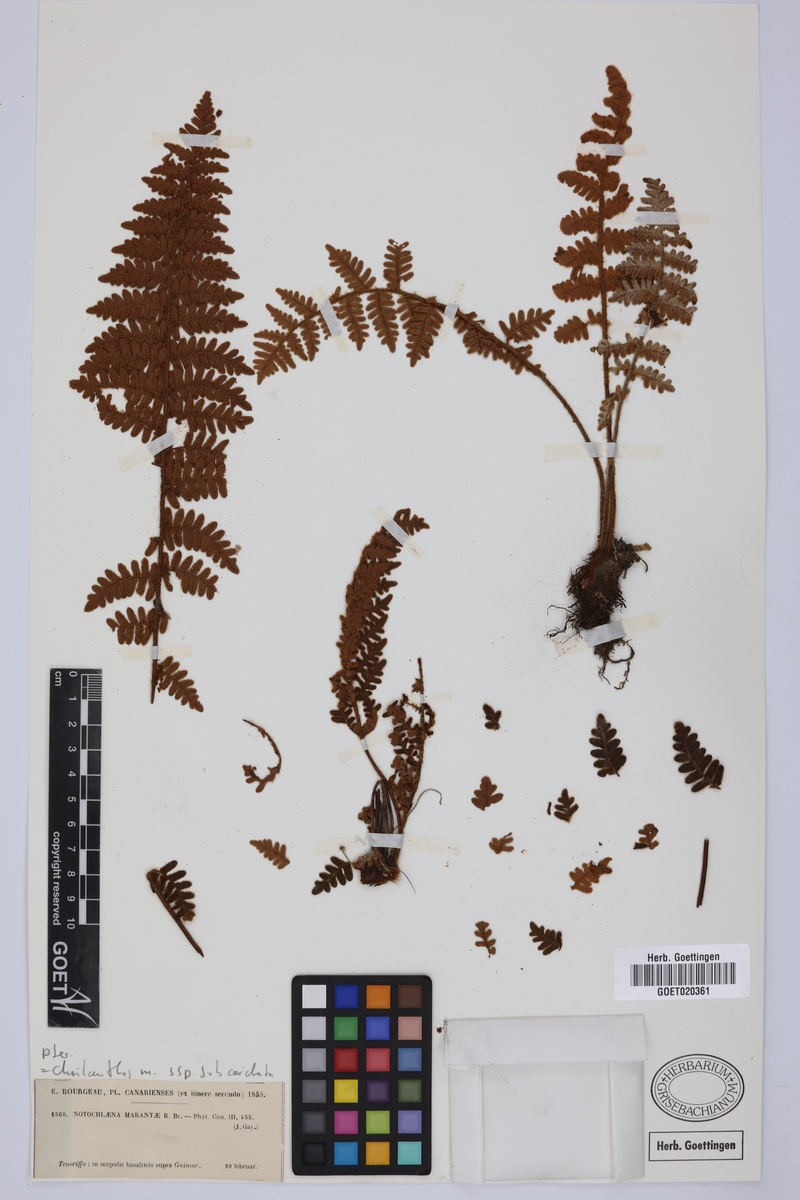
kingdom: Plantae
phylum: Tracheophyta
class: Polypodiopsida
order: Polypodiales
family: Pteridaceae
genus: Paragymnopteris
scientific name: Paragymnopteris marantae
